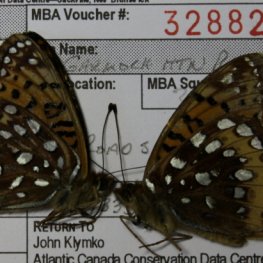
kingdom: Animalia
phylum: Arthropoda
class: Insecta
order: Lepidoptera
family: Nymphalidae
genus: Speyeria
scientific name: Speyeria cybele
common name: Great Spangled Fritillary
